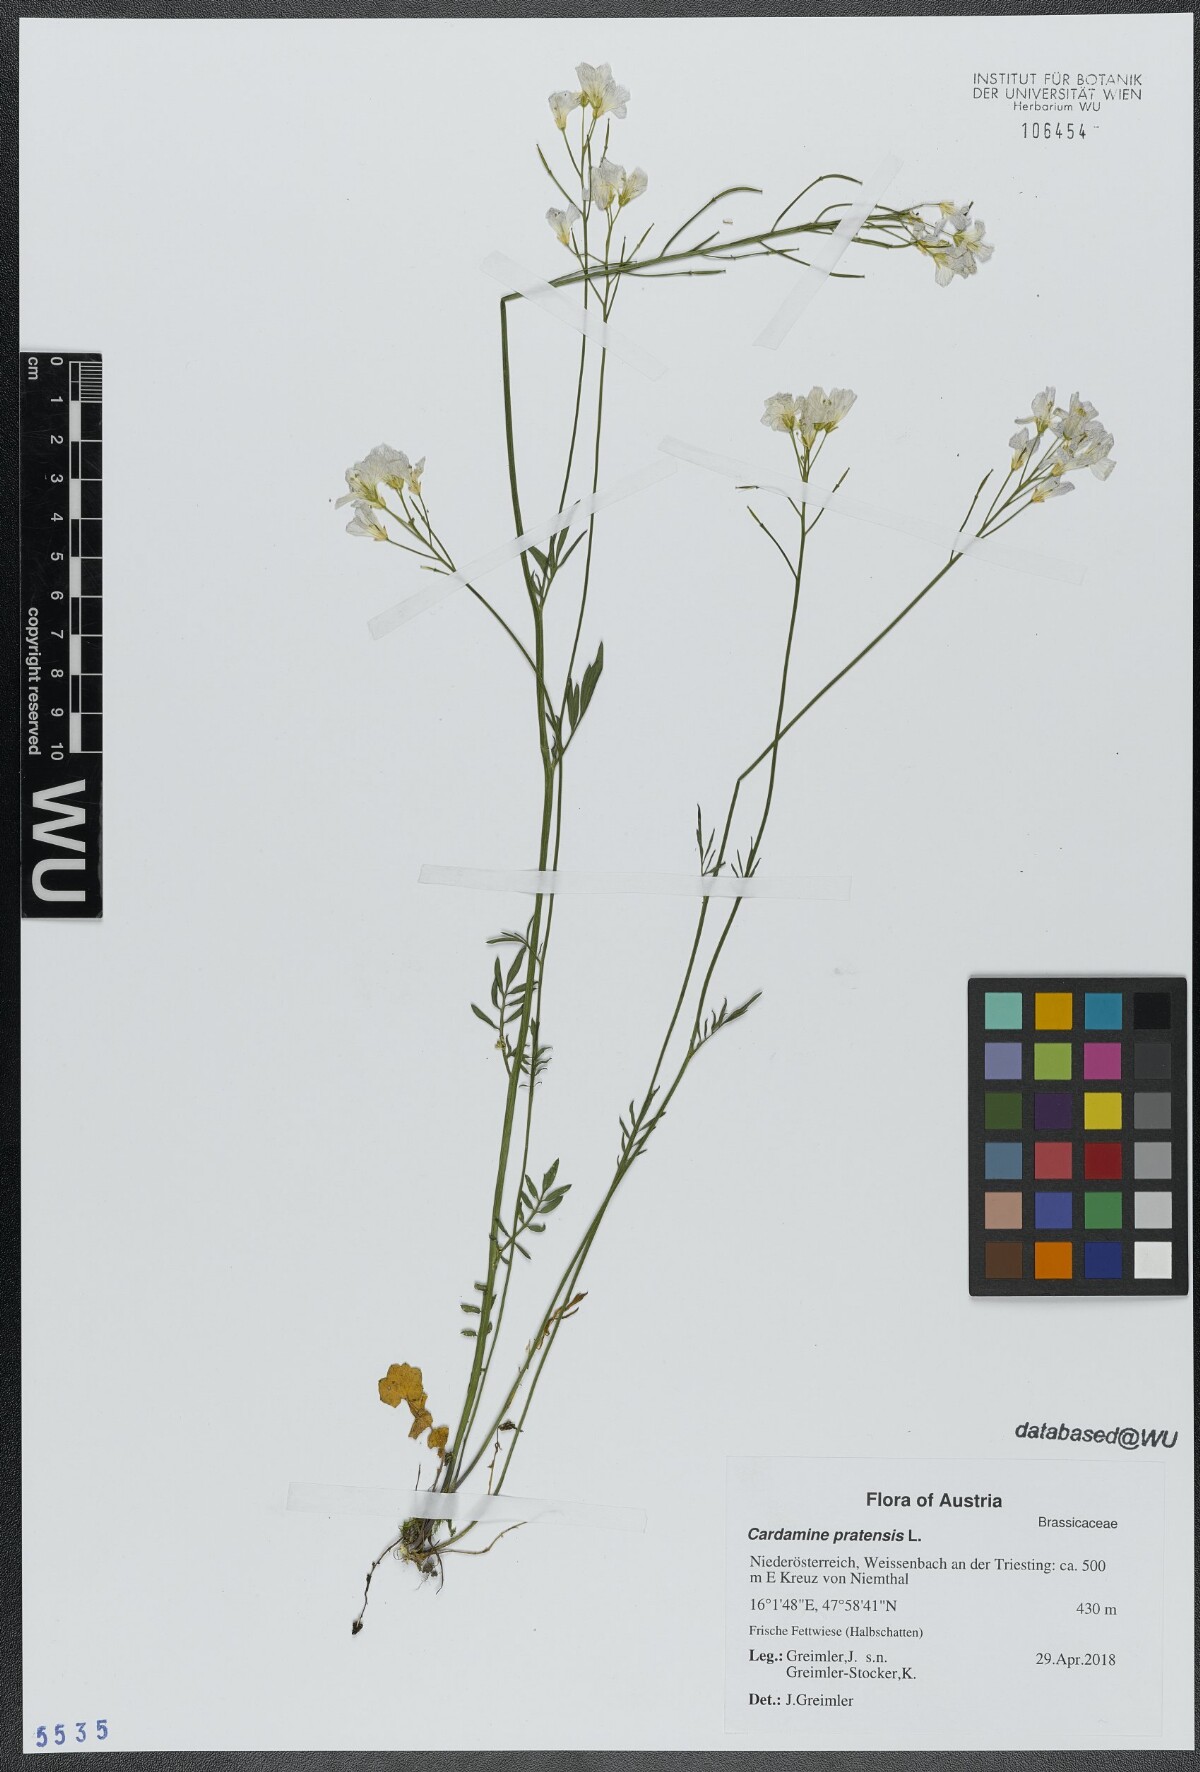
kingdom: Plantae
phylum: Tracheophyta
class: Magnoliopsida
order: Brassicales
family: Brassicaceae
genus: Cardamine
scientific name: Cardamine pratensis
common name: Cuckoo flower
